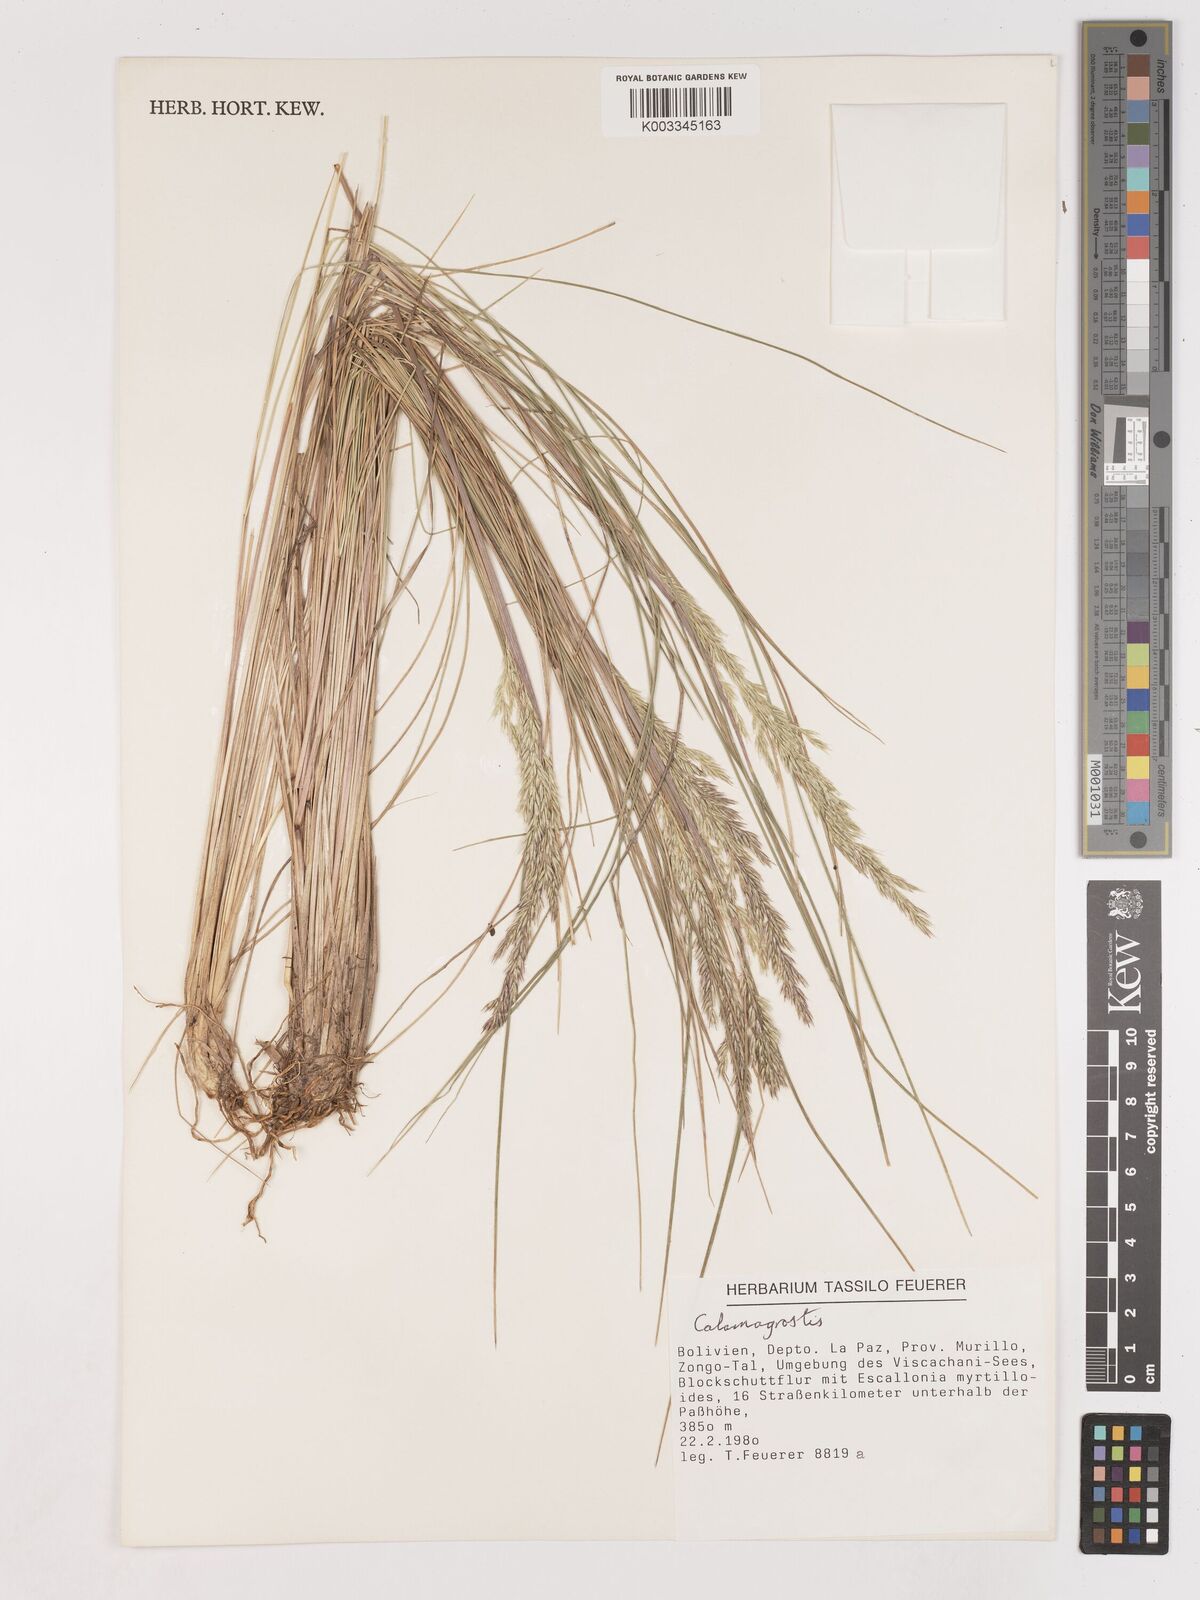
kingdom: Plantae
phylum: Tracheophyta
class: Liliopsida
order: Poales
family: Poaceae
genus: Calamagrostis
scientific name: Calamagrostis
